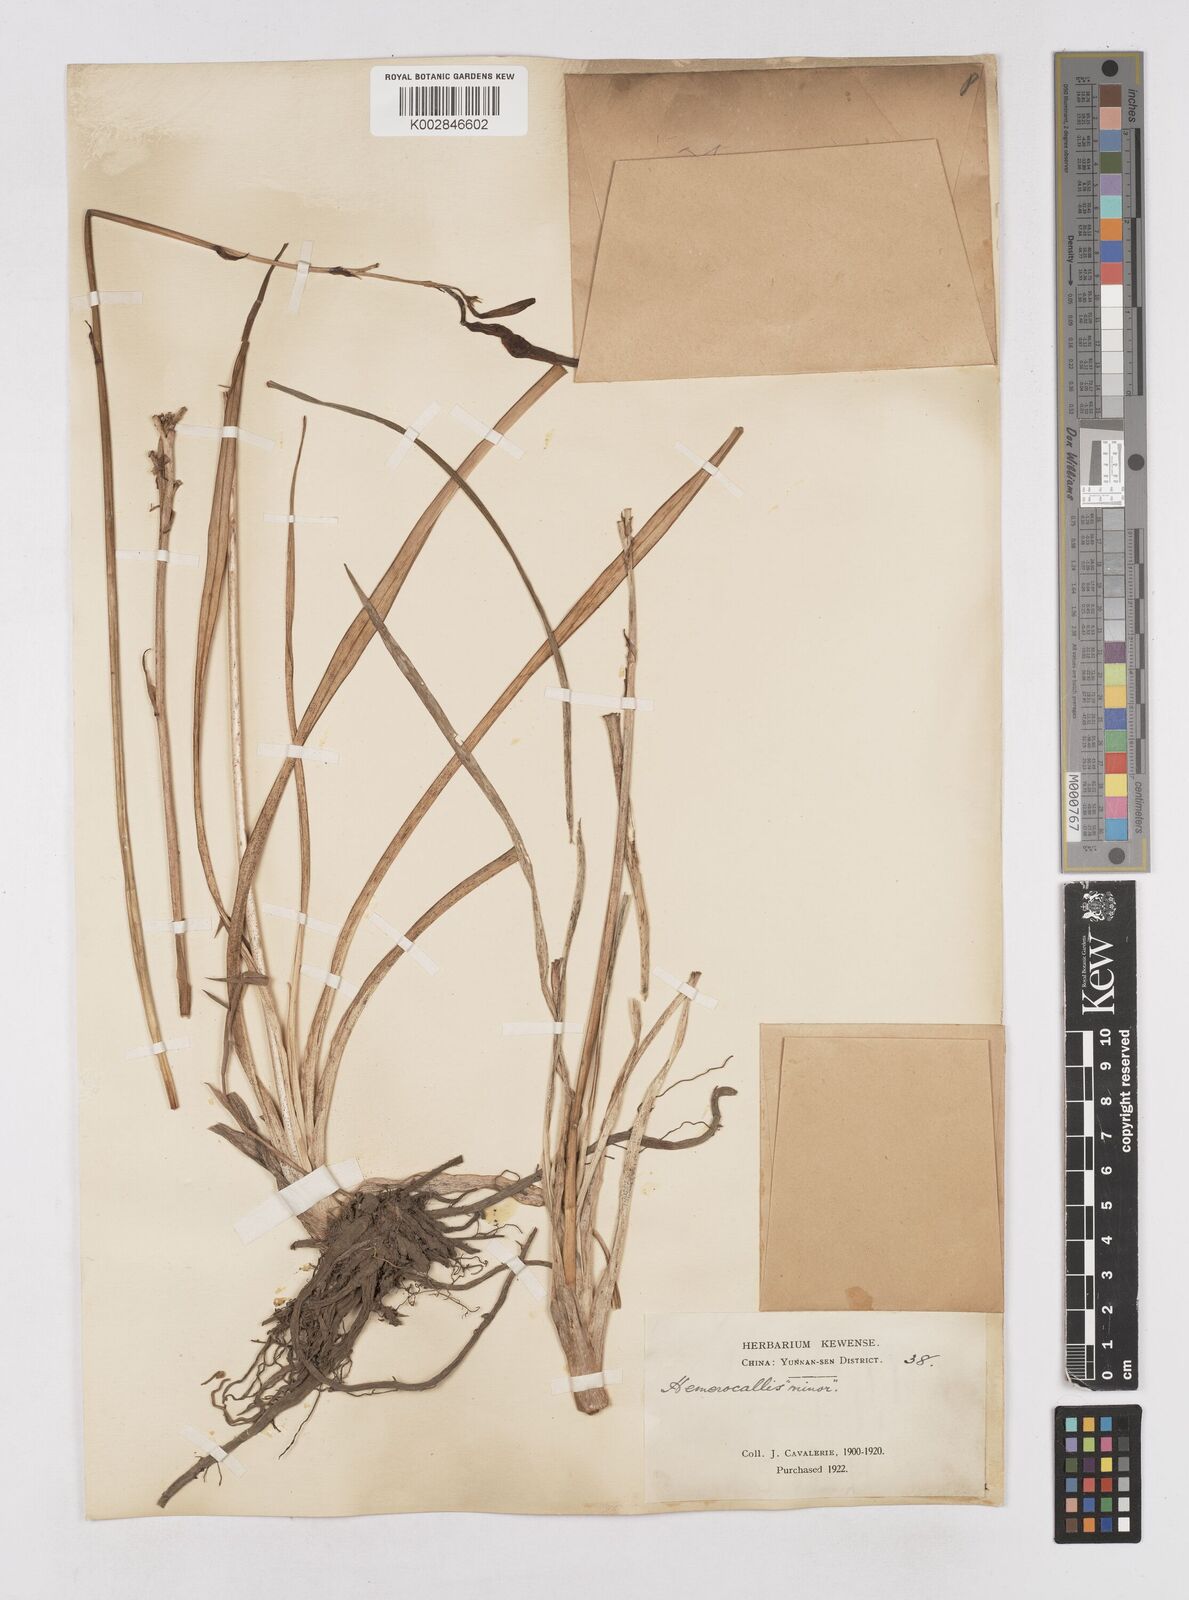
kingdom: Plantae
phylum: Tracheophyta
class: Liliopsida
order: Asparagales
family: Asphodelaceae
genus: Hemerocallis
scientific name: Hemerocallis minor
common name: Small daylily
